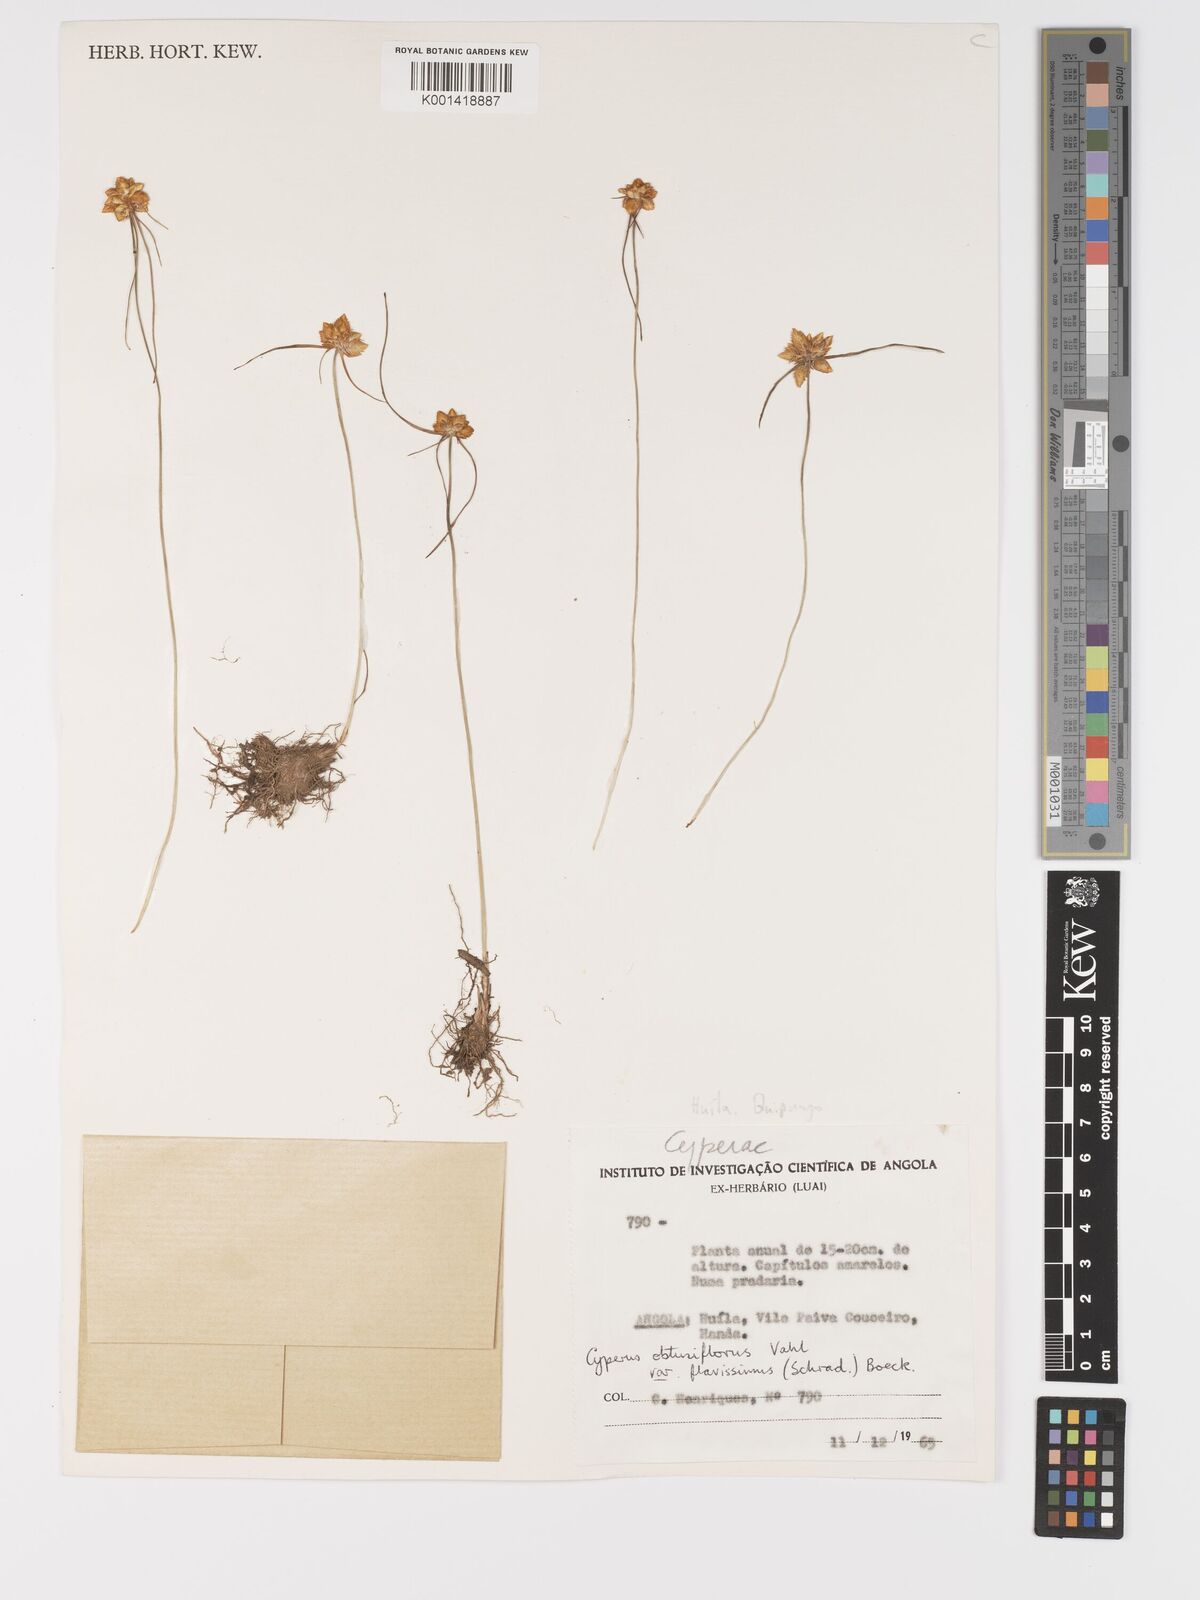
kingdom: Plantae
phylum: Tracheophyta
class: Liliopsida
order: Poales
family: Cyperaceae
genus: Cyperus
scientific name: Cyperus sphaerocephalus
